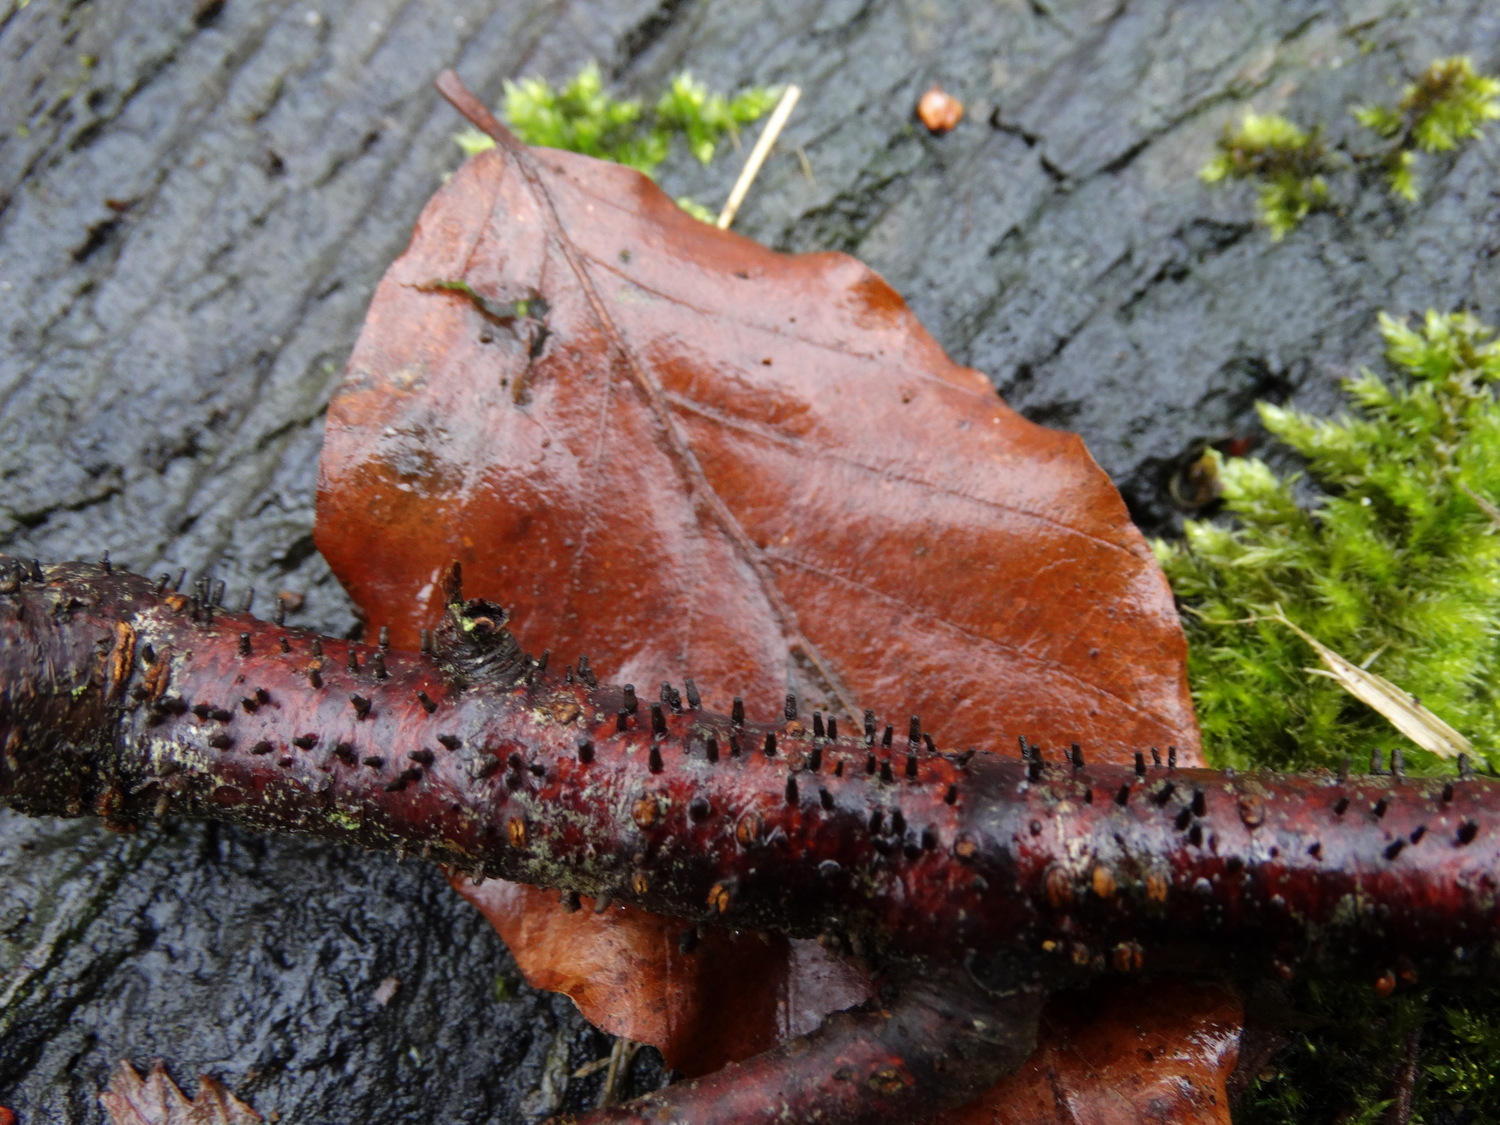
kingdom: Fungi
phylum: Ascomycota
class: Leotiomycetes
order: Helotiales
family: Godroniaceae
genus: Godronia
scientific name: Godronia uberiformis
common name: solbær-urneskive
